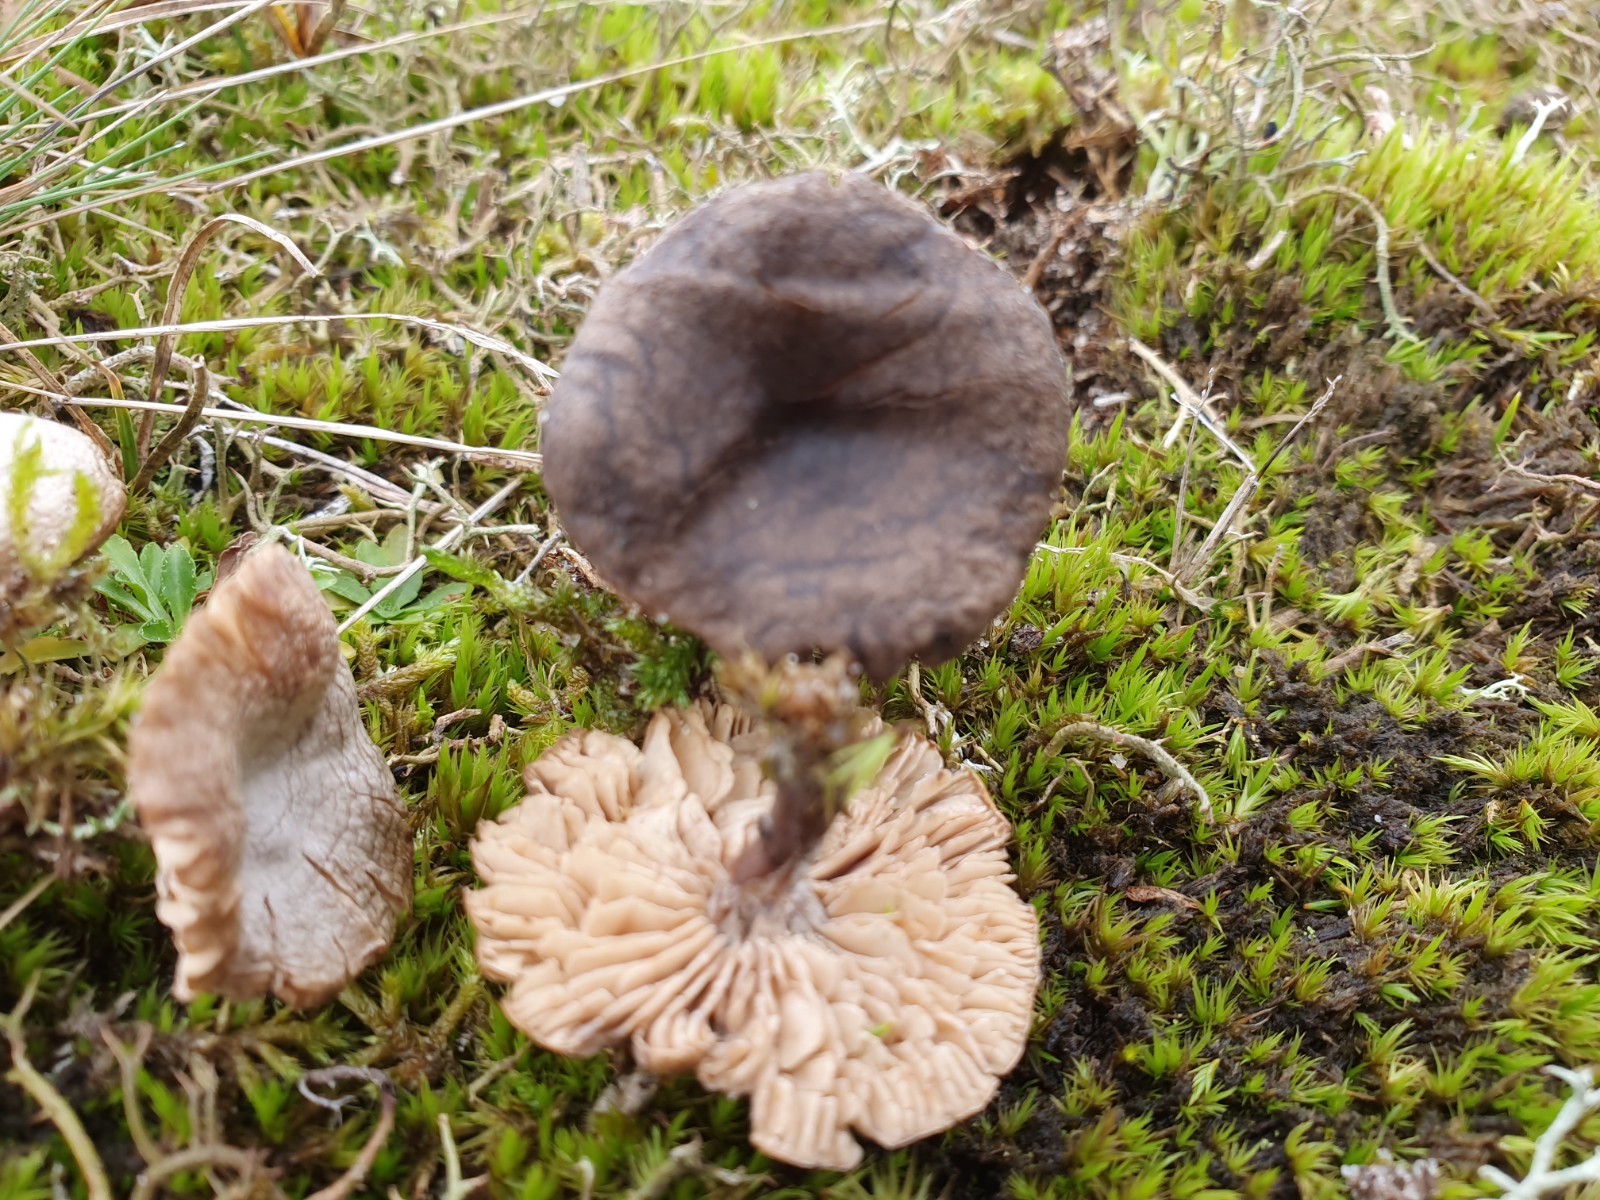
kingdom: Fungi
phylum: Basidiomycota
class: Agaricomycetes
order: Agaricales
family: Entolomataceae
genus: Clitopilus
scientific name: Clitopilus caelatus
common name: gråbrun troldhat
